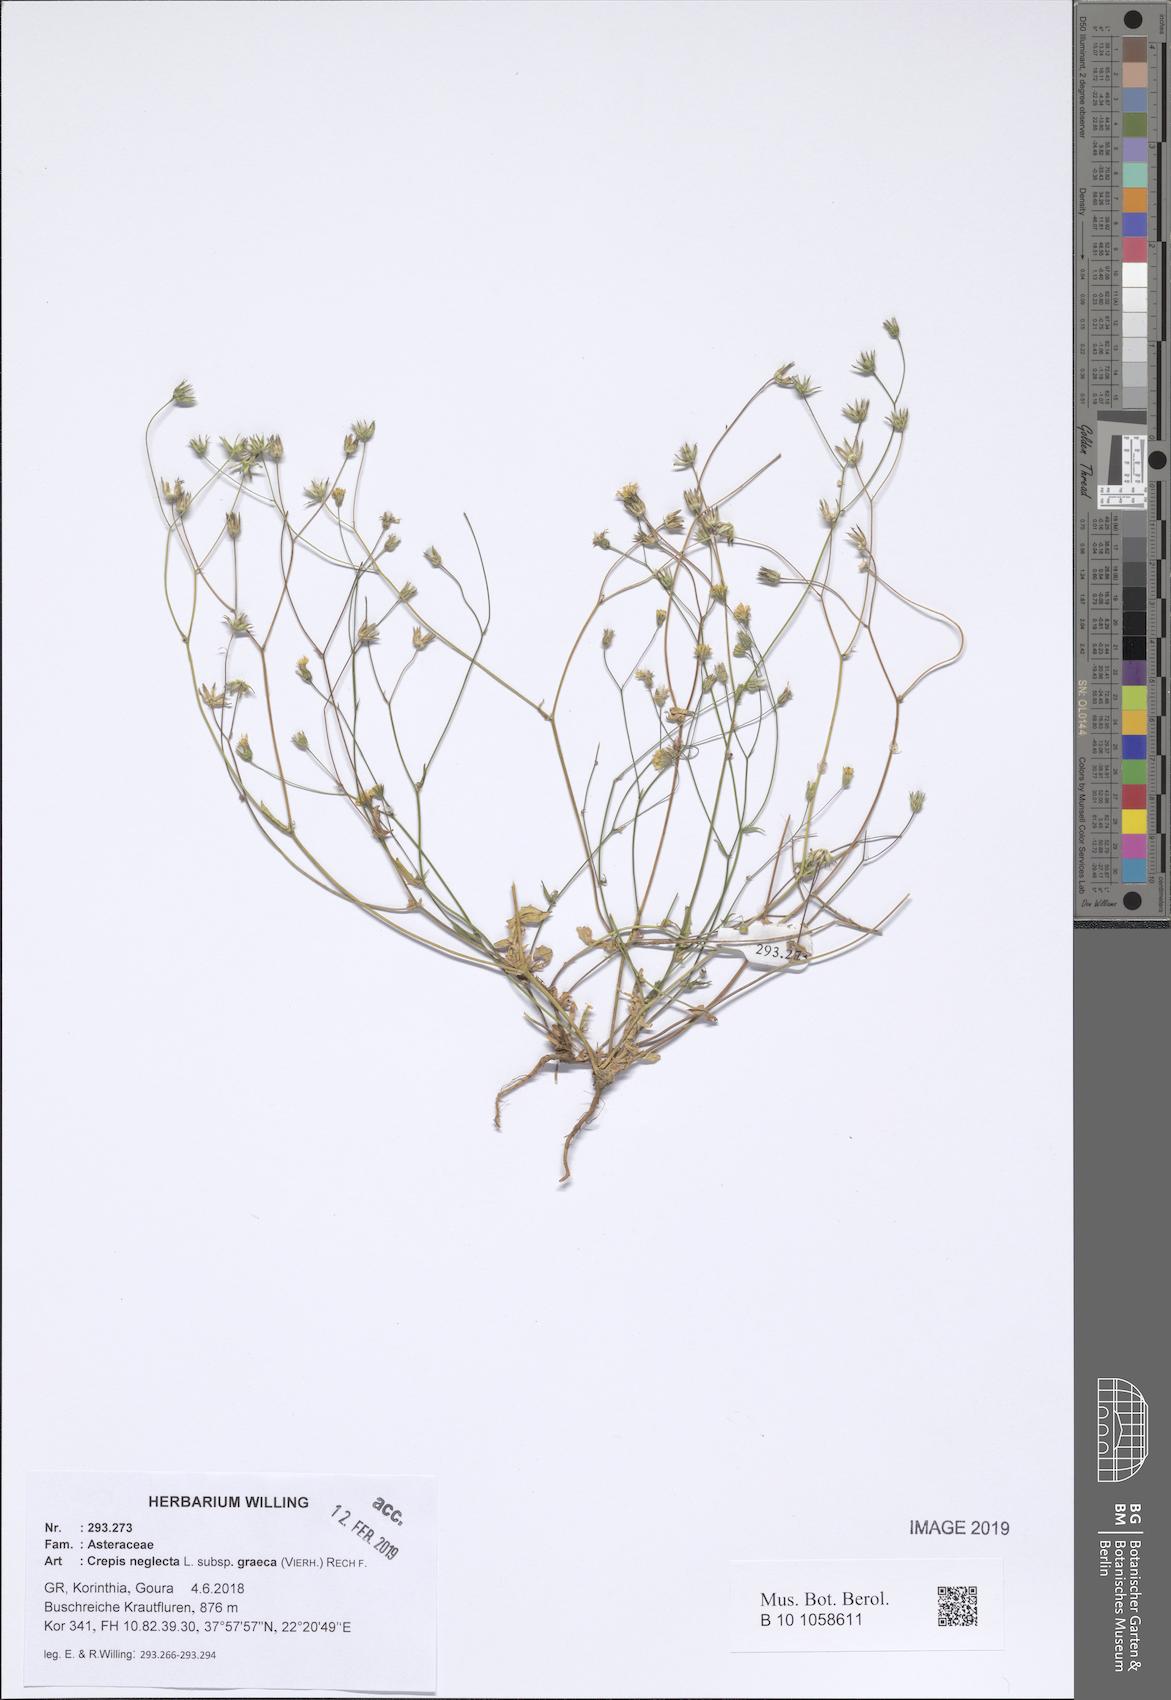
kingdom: Plantae
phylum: Tracheophyta
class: Magnoliopsida
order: Asterales
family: Asteraceae
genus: Crepis
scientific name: Crepis neglecta
